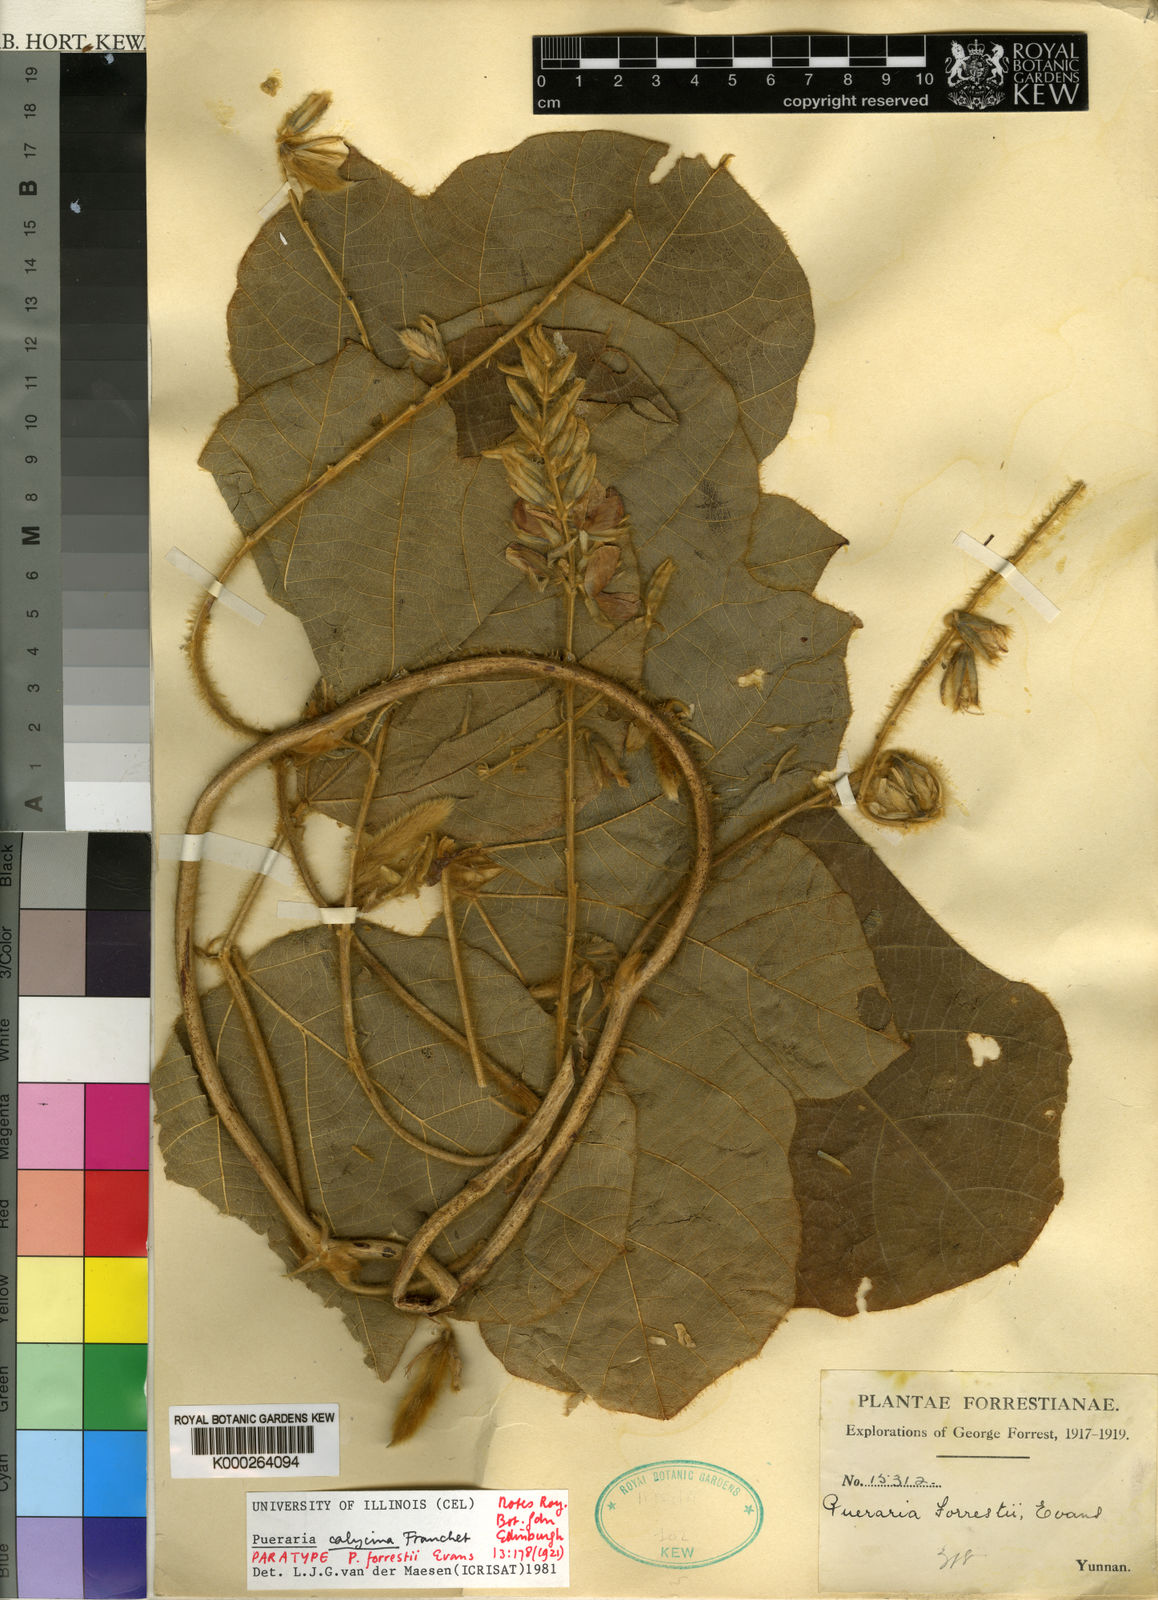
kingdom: Plantae
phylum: Tracheophyta
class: Magnoliopsida
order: Fabales
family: Fabaceae
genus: Pueraria
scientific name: Pueraria calycina
